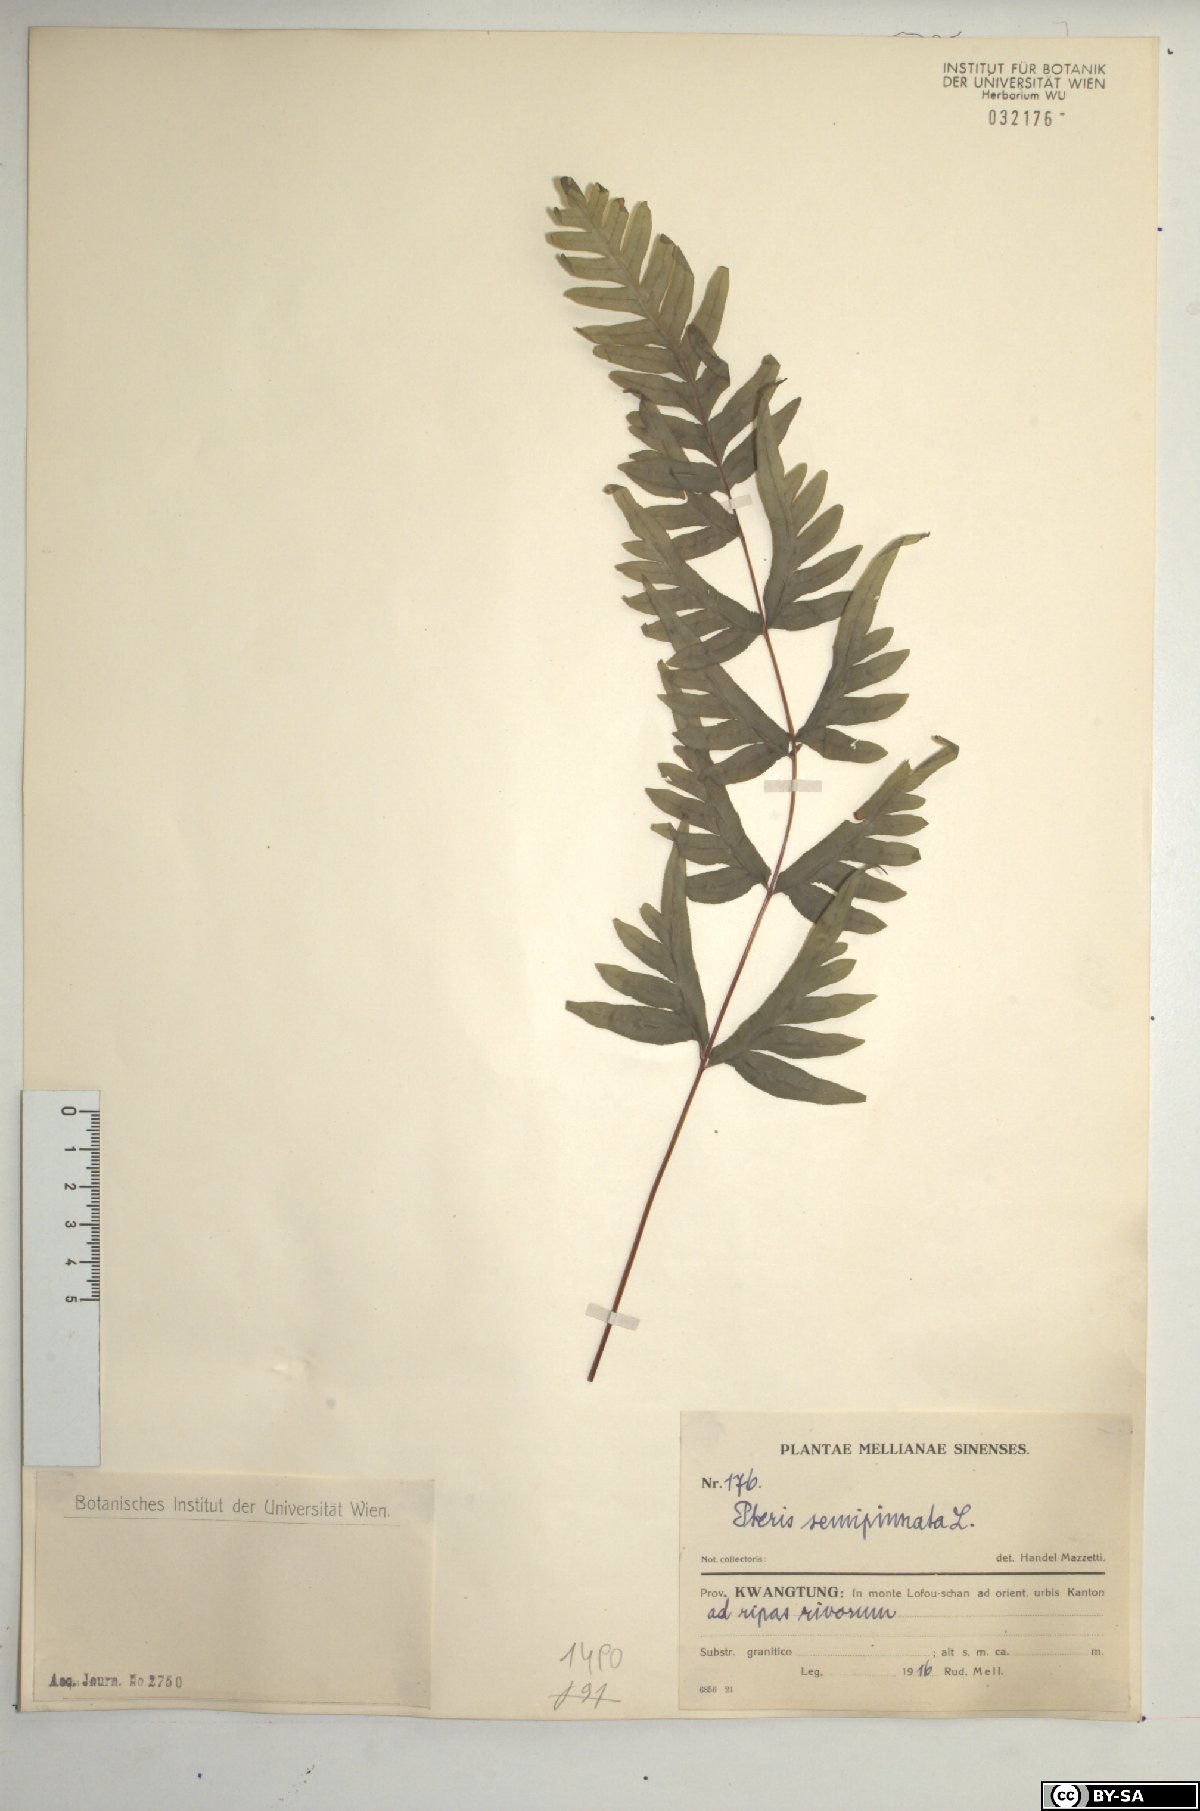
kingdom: Plantae
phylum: Tracheophyta
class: Polypodiopsida
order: Polypodiales
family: Pteridaceae
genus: Pteris
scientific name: Pteris semipinnata
